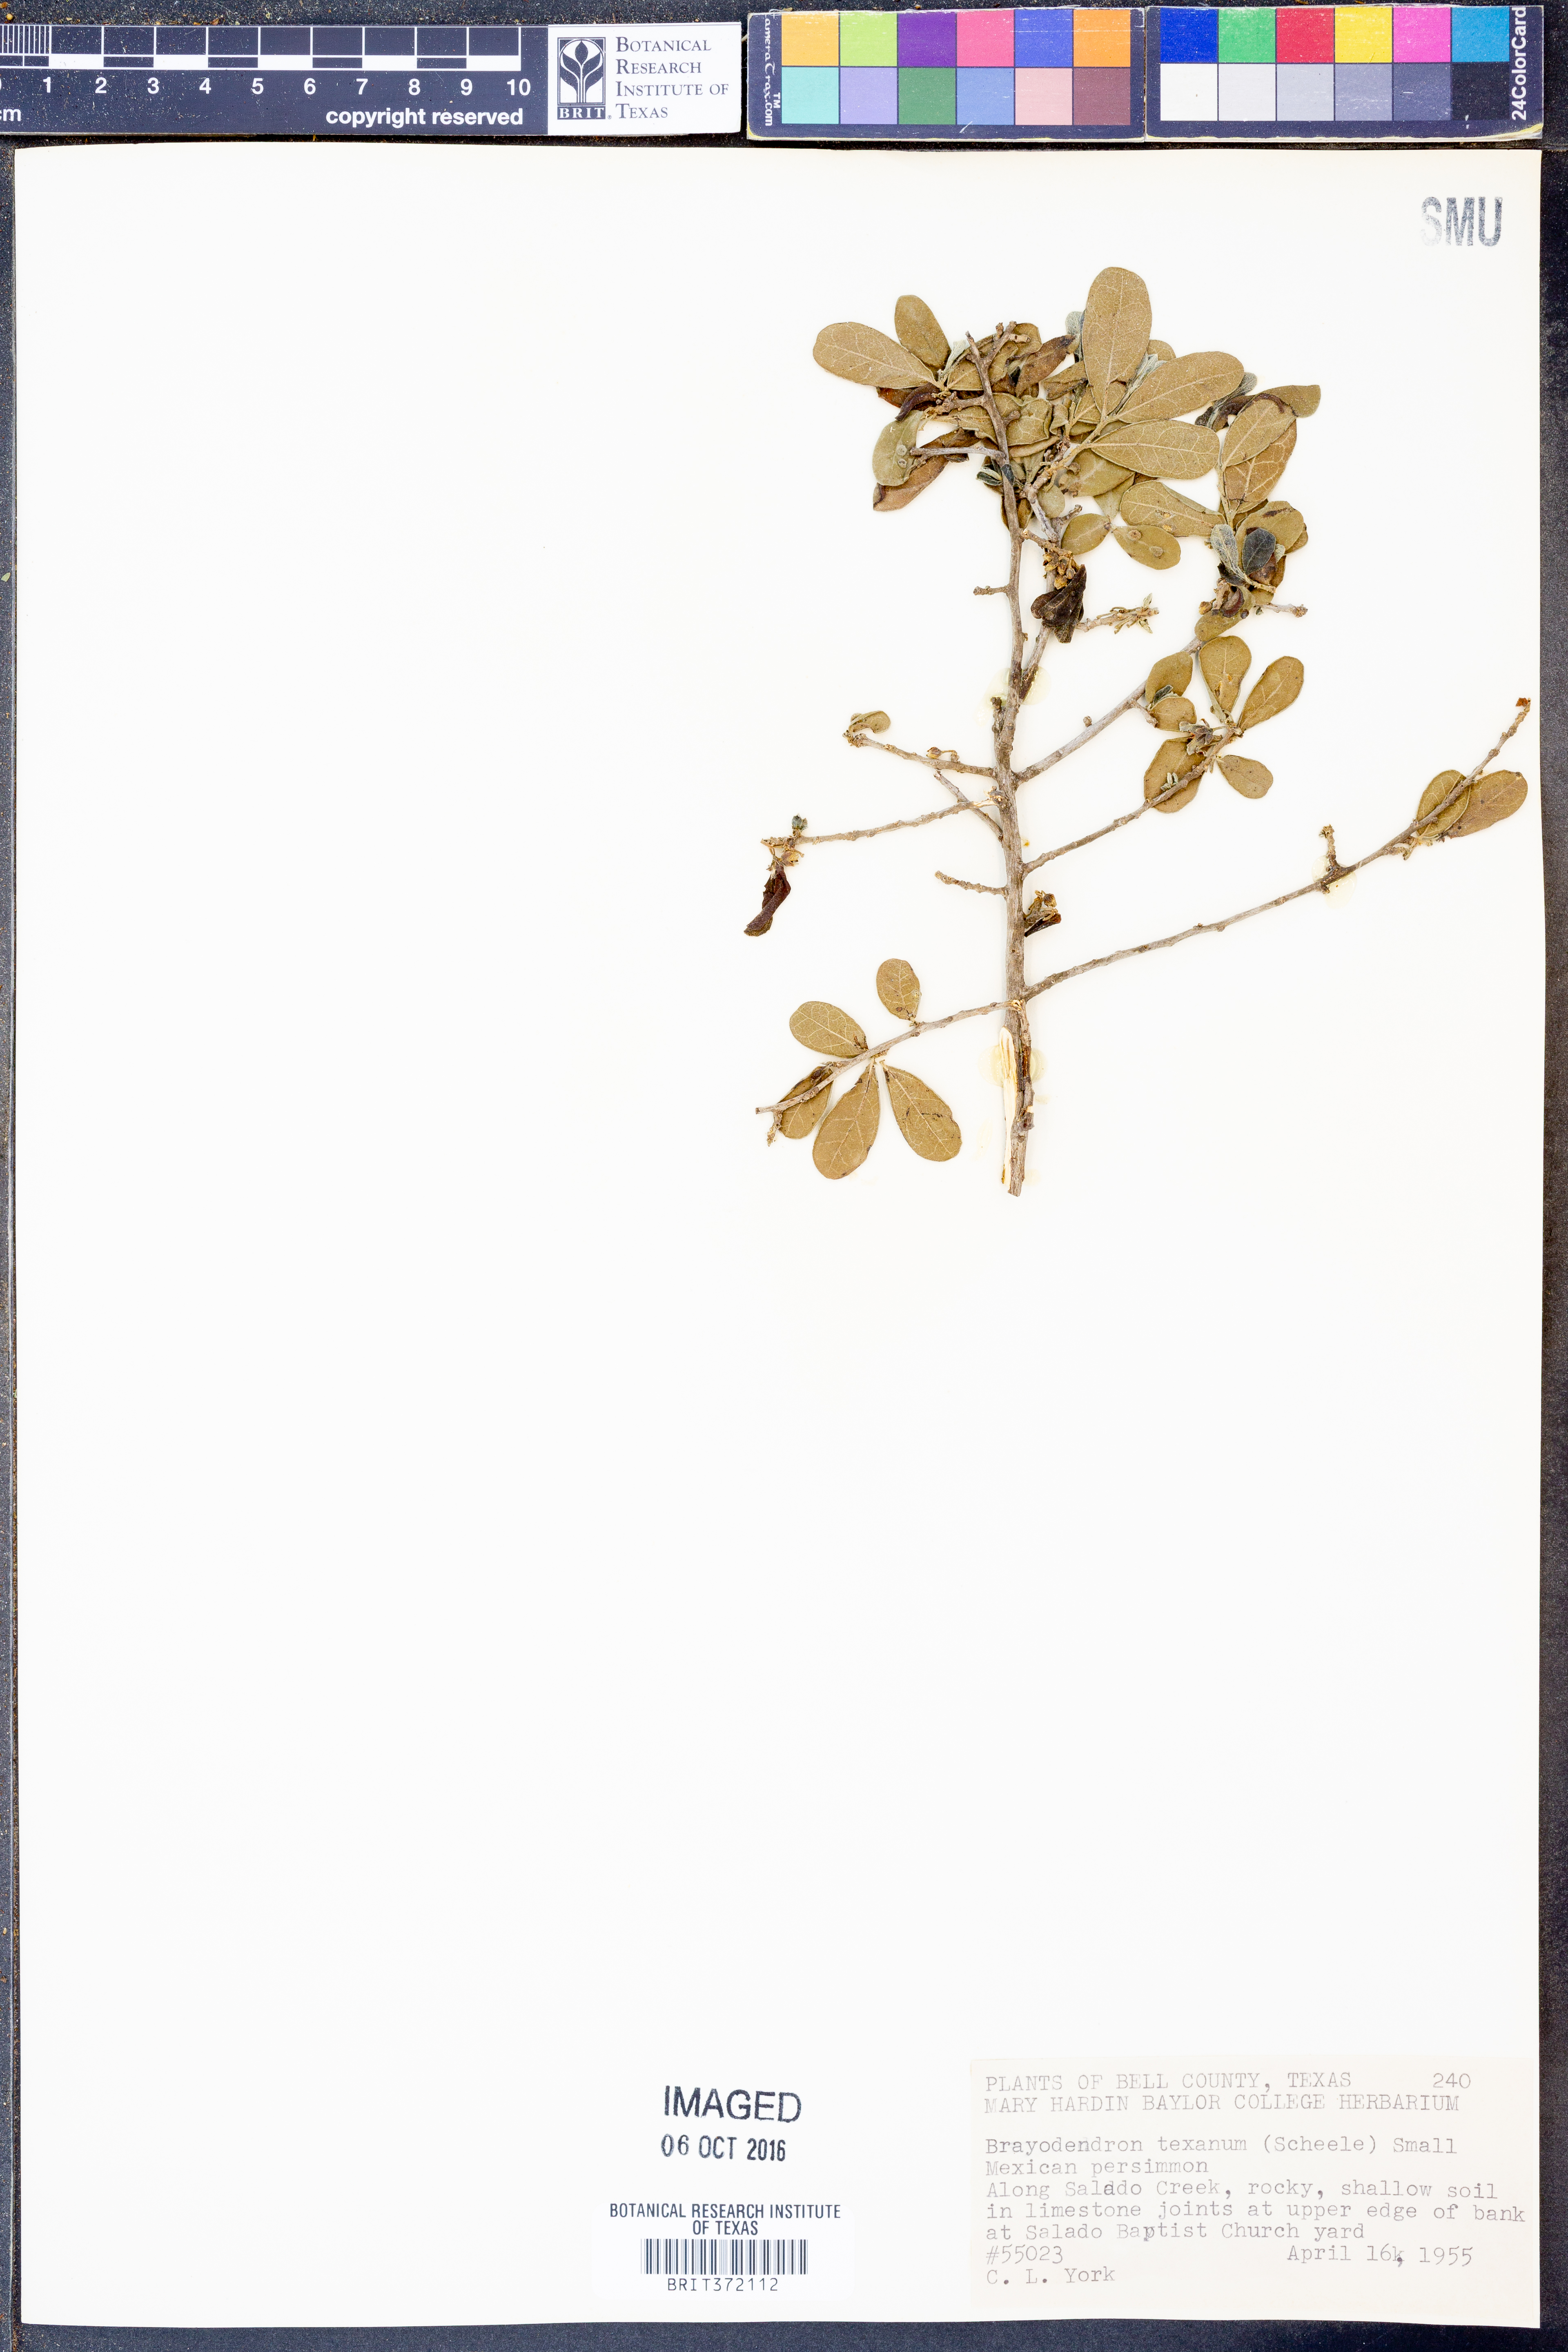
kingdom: Plantae
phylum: Tracheophyta
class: Magnoliopsida
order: Ericales
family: Ebenaceae
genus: Diospyros
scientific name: Diospyros texana
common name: Texas persimmon
